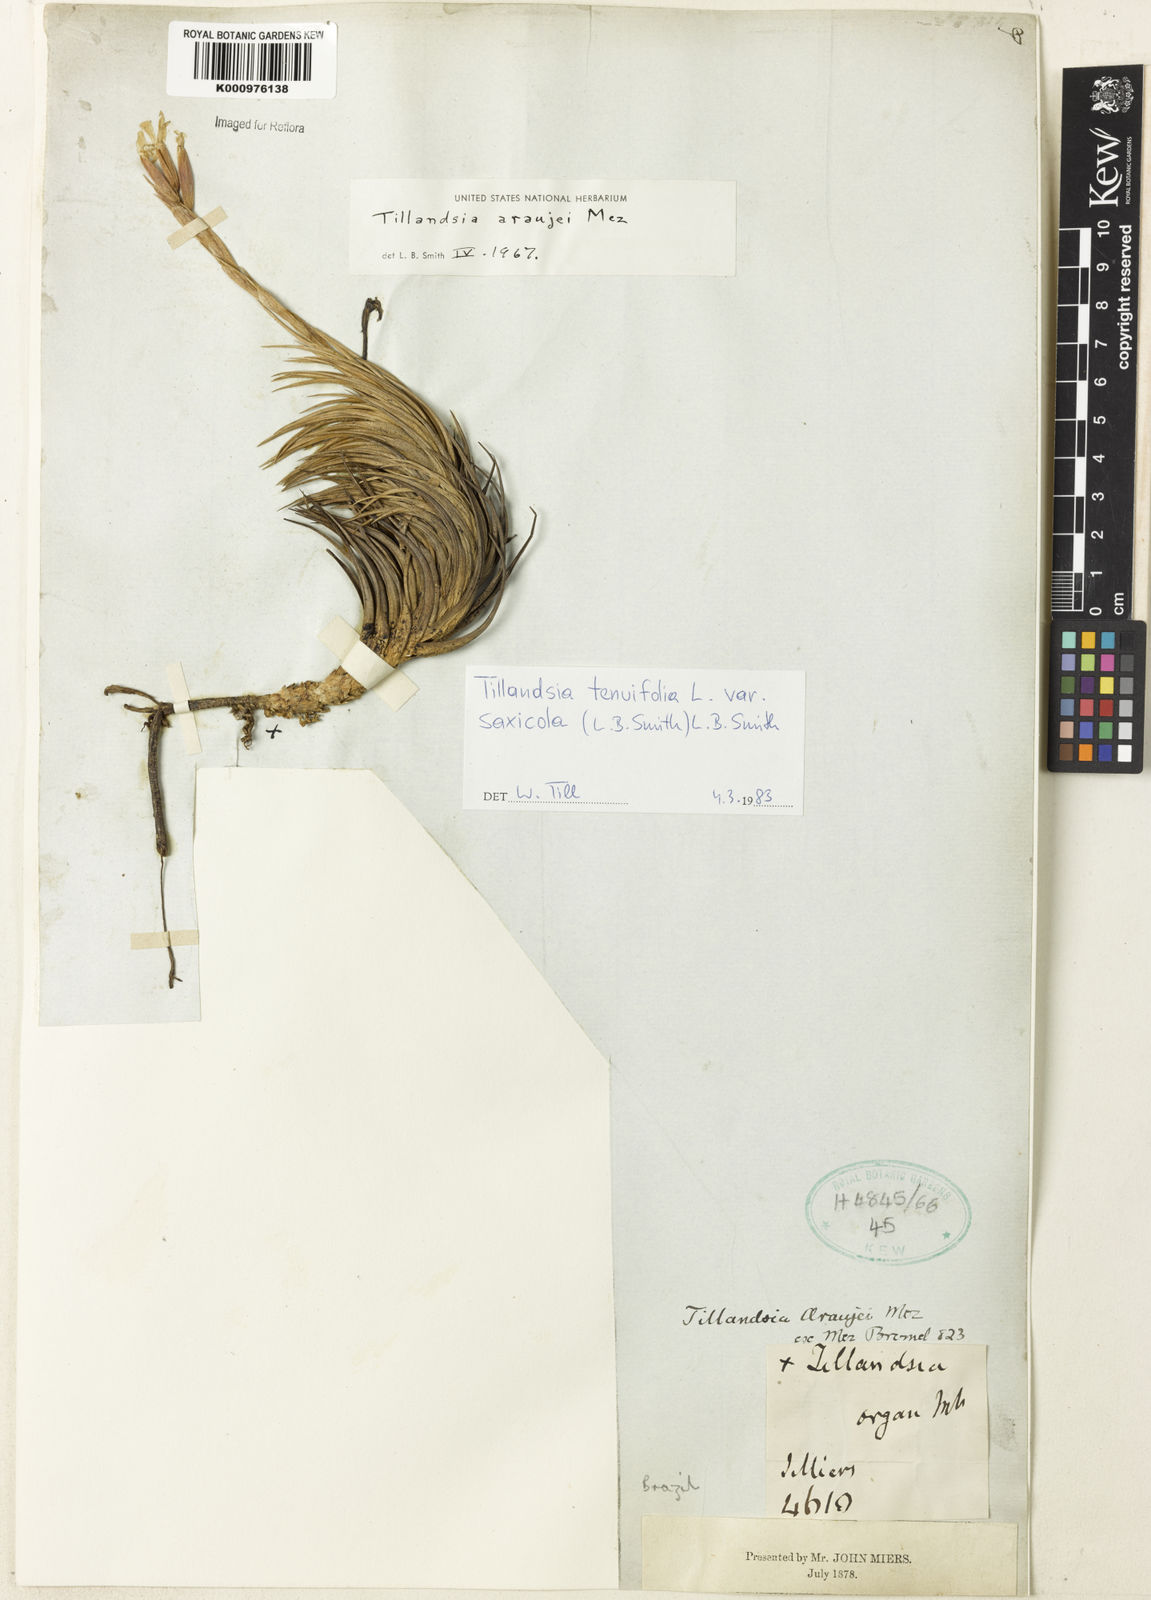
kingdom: Plantae
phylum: Tracheophyta
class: Liliopsida
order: Poales
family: Bromeliaceae
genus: Tillandsia
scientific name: Tillandsia tenuifolia
